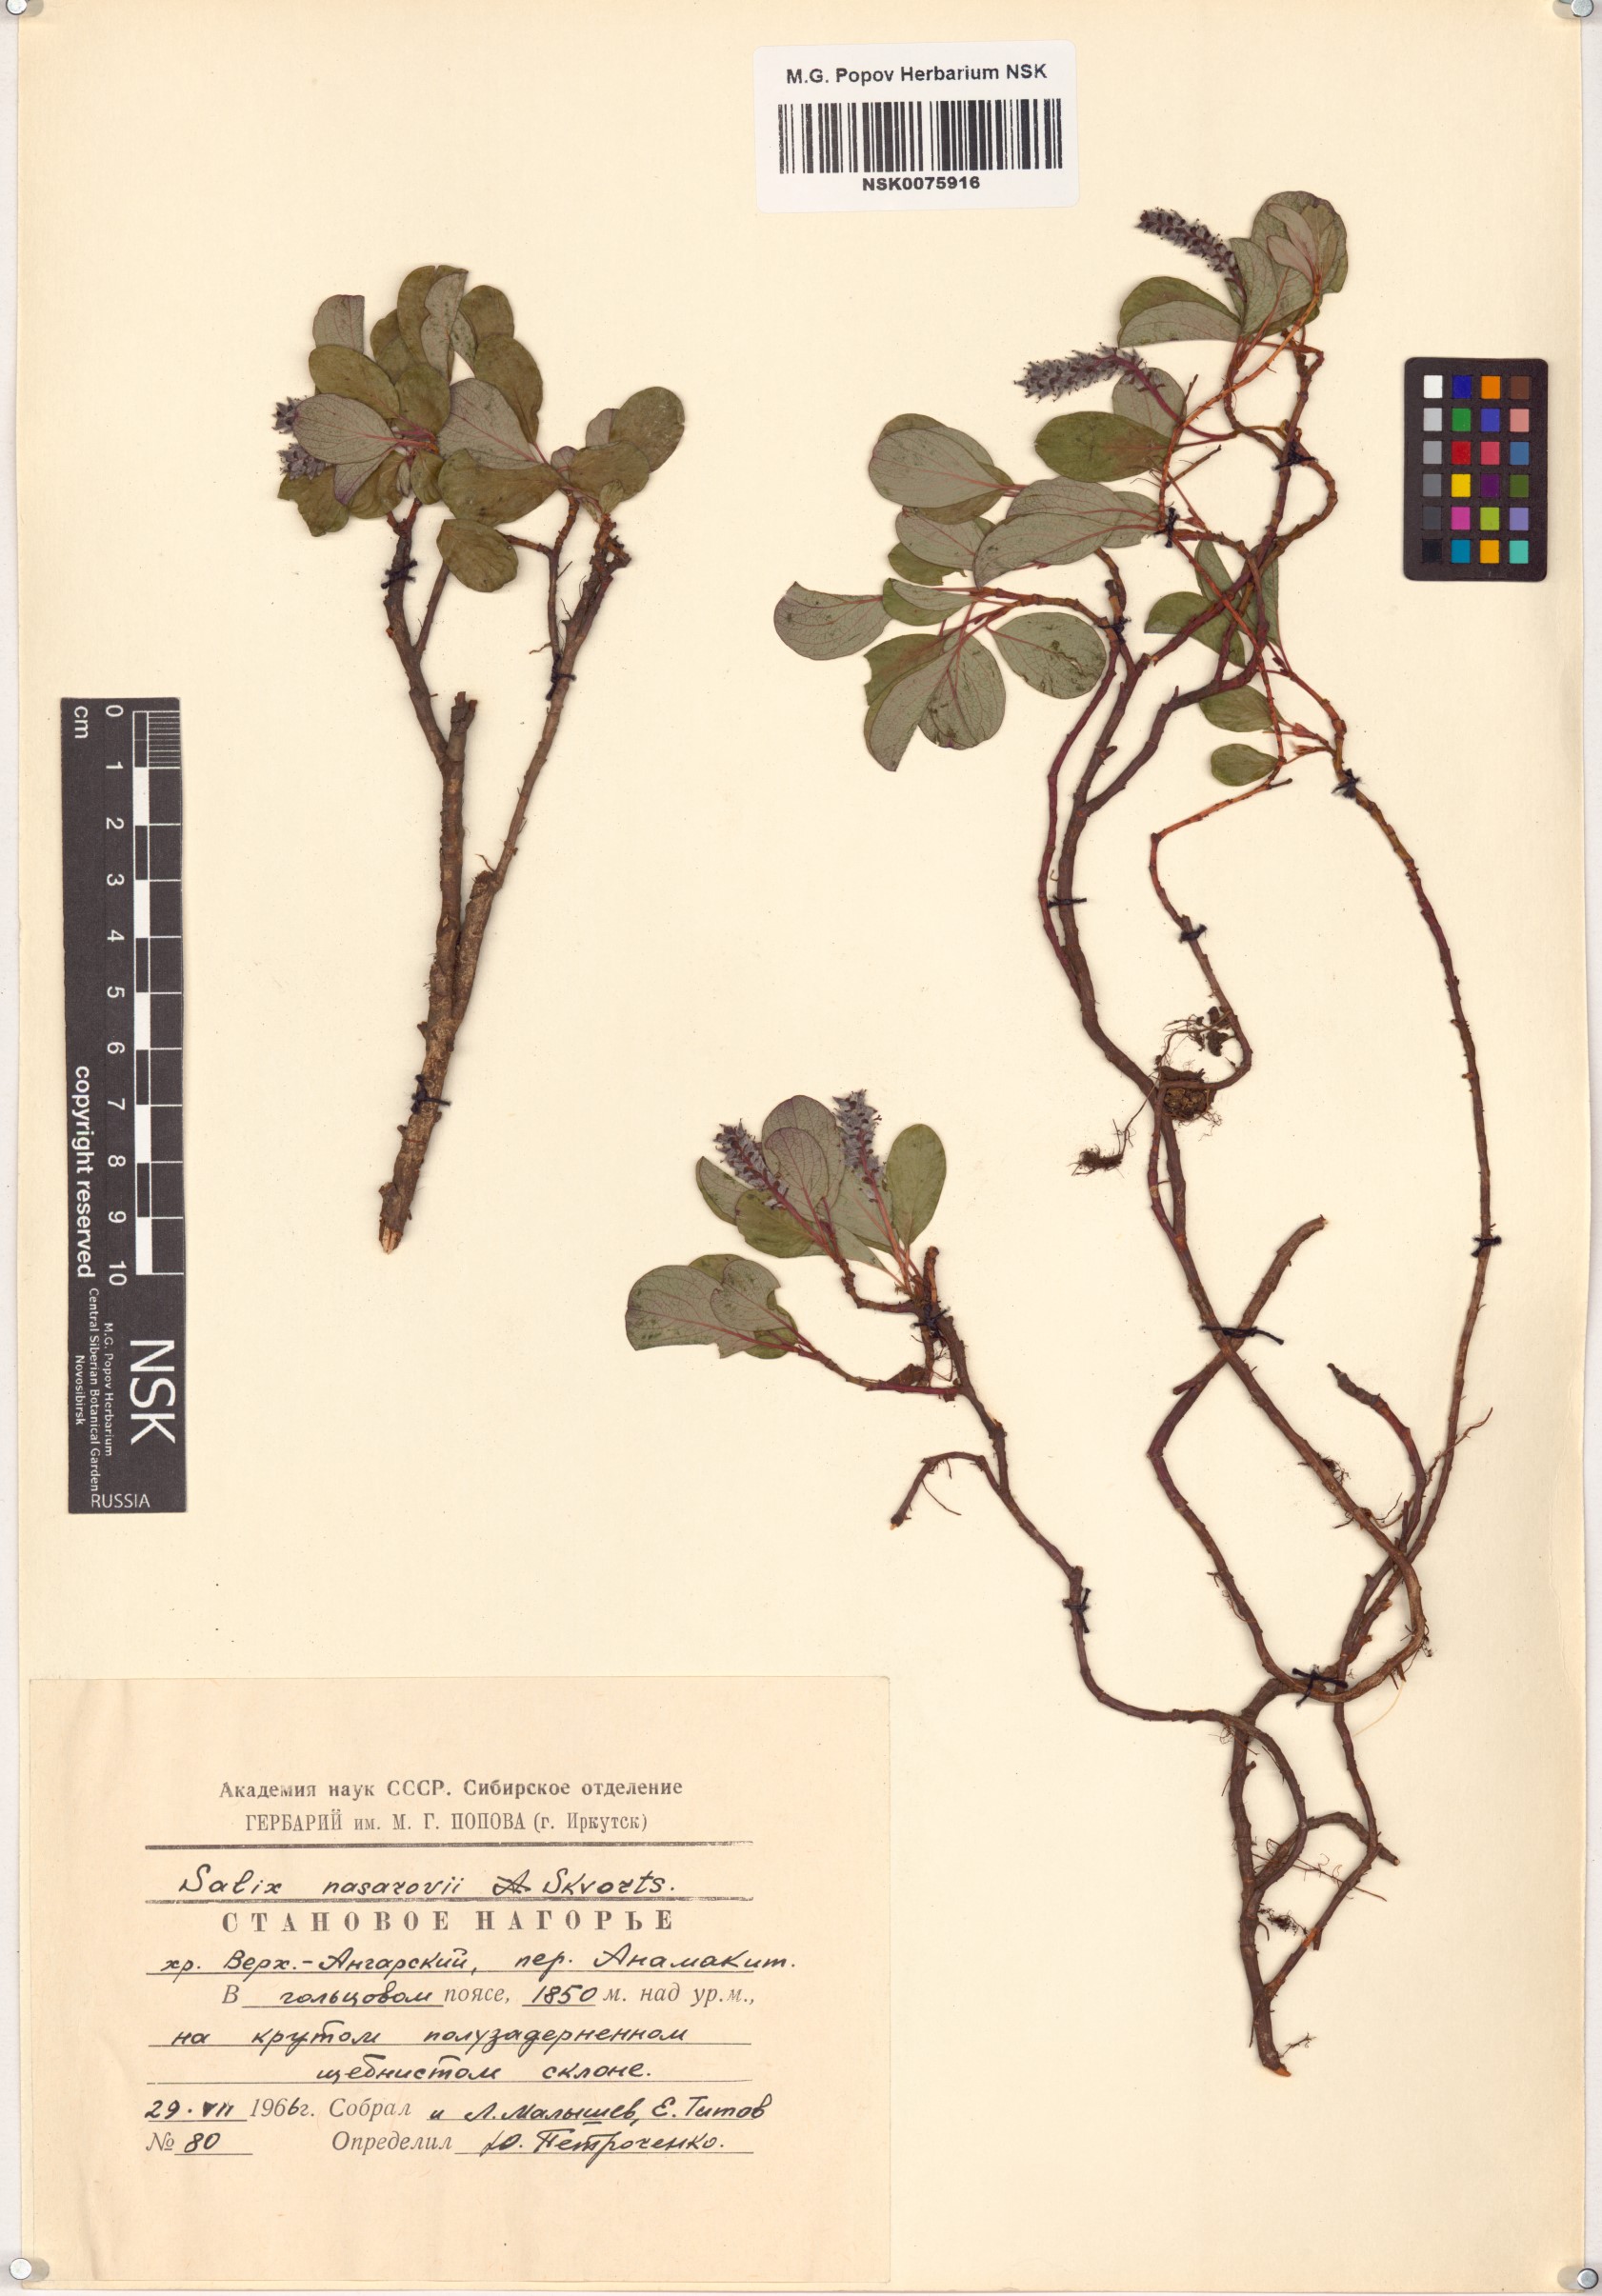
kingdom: Plantae
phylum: Tracheophyta
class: Magnoliopsida
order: Malpighiales
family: Salicaceae
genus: Salix
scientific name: Salix nasarovii
